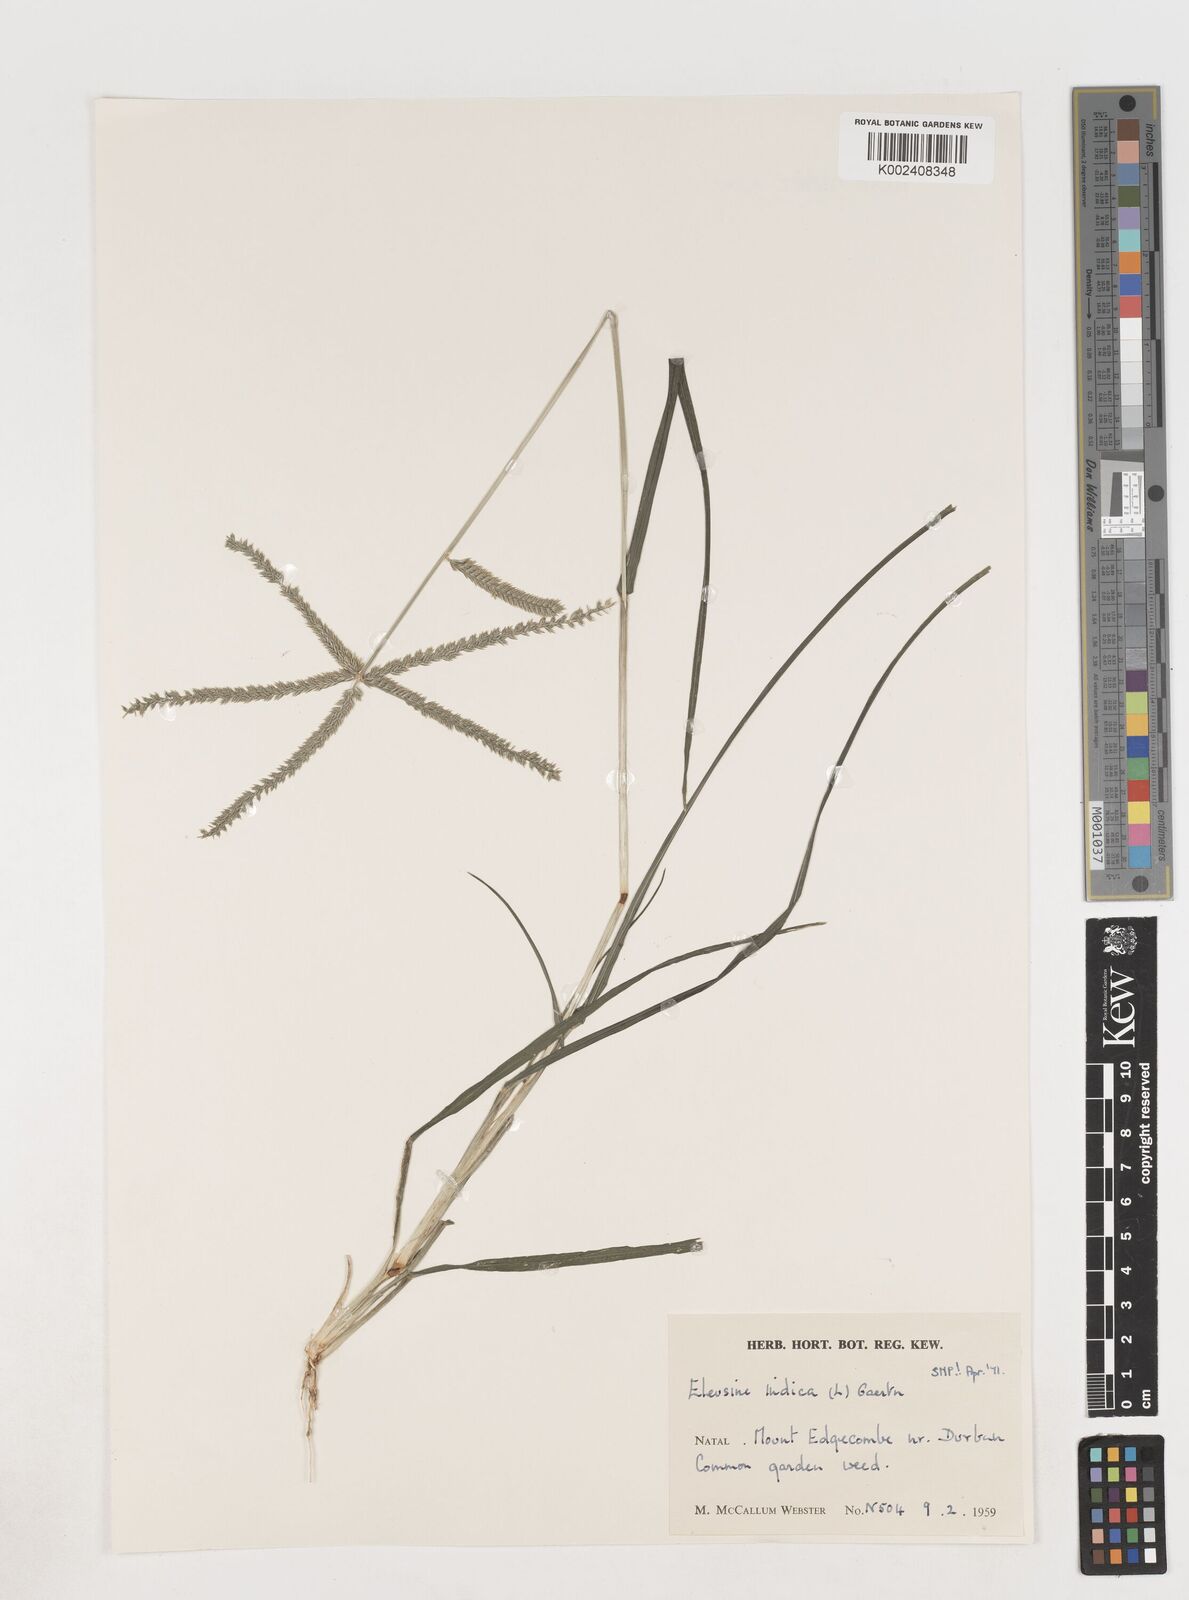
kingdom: Plantae
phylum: Tracheophyta
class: Liliopsida
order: Poales
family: Poaceae
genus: Eleusine
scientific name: Eleusine indica
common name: Yard-grass
